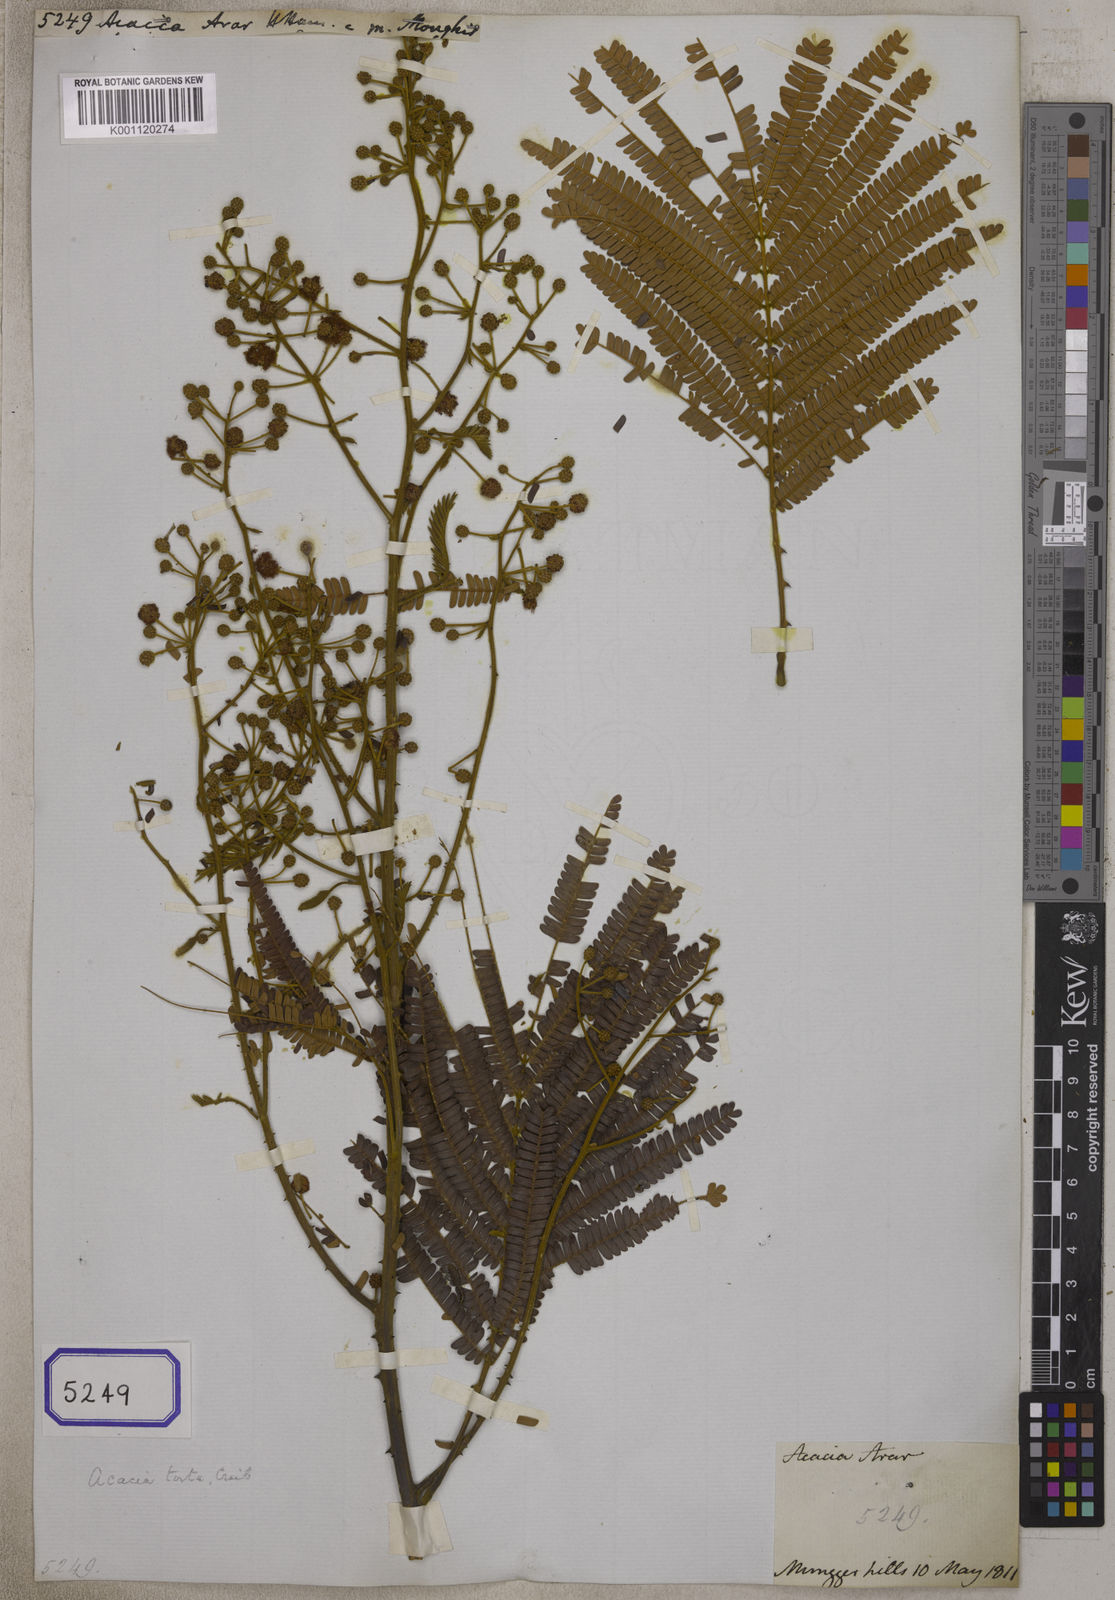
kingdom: Plantae
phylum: Tracheophyta
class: Magnoliopsida
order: Fabales
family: Fabaceae
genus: Acacia
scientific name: Acacia
